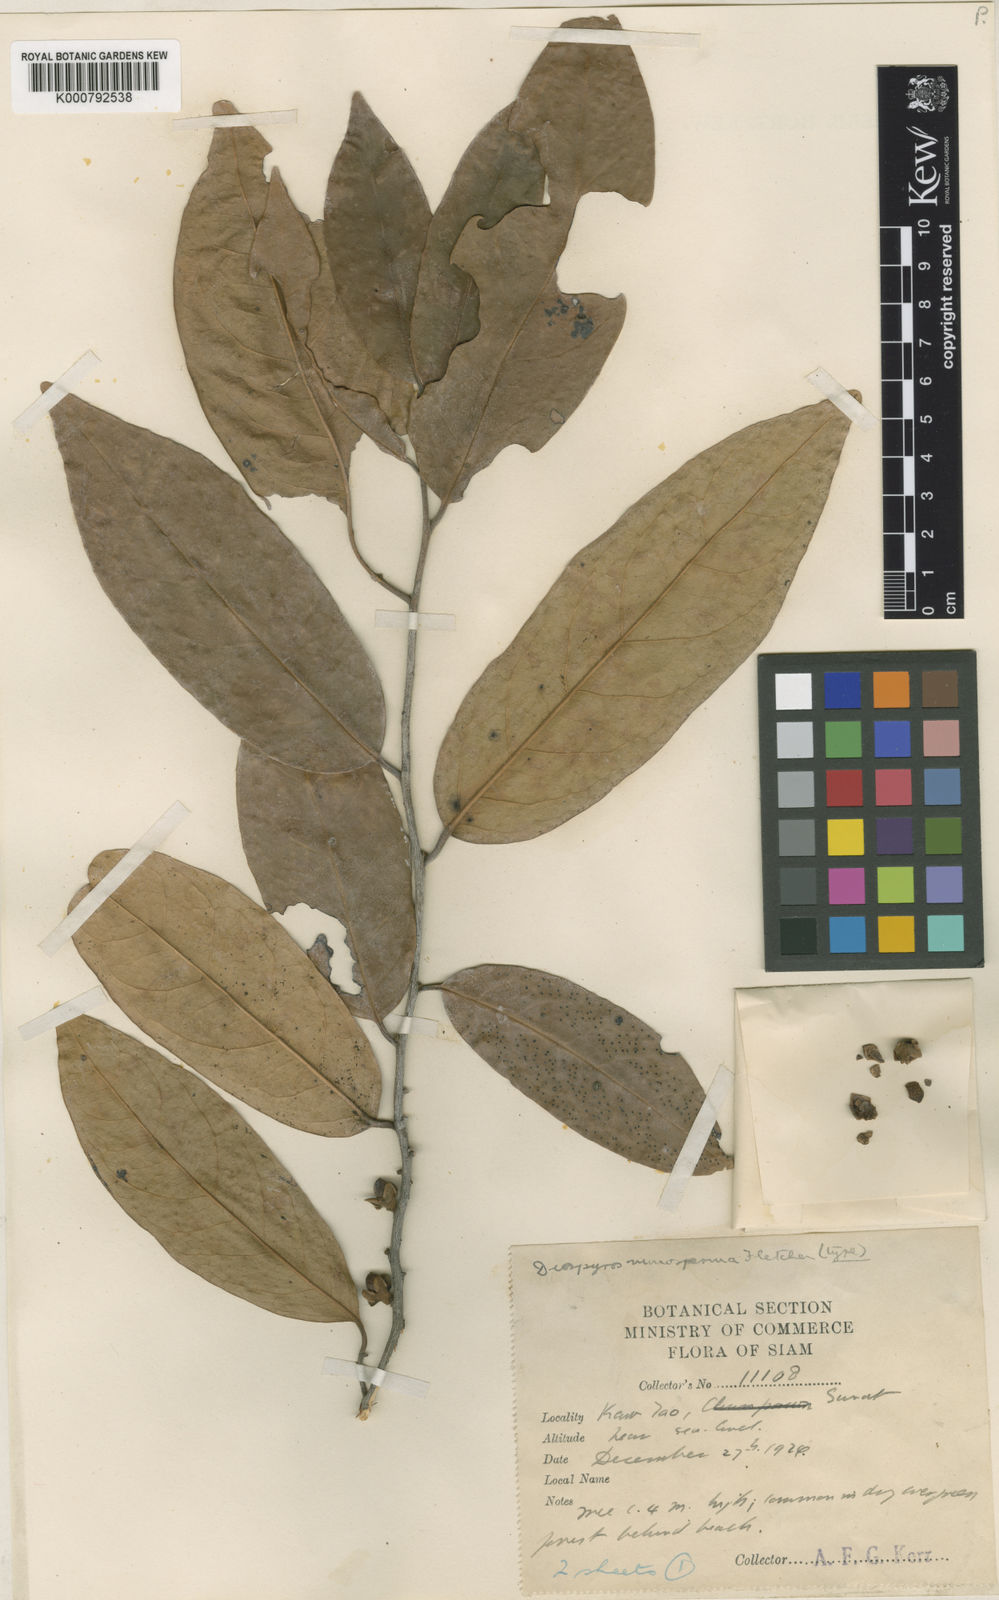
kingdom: Plantae
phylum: Tracheophyta
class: Magnoliopsida
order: Ericales
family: Ebenaceae
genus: Diospyros
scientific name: Diospyros defectrix
